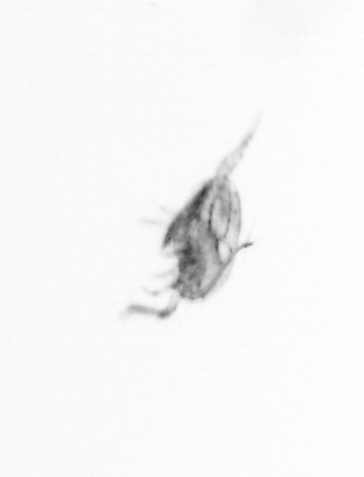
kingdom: Animalia
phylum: Arthropoda
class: Copepoda
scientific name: Copepoda
